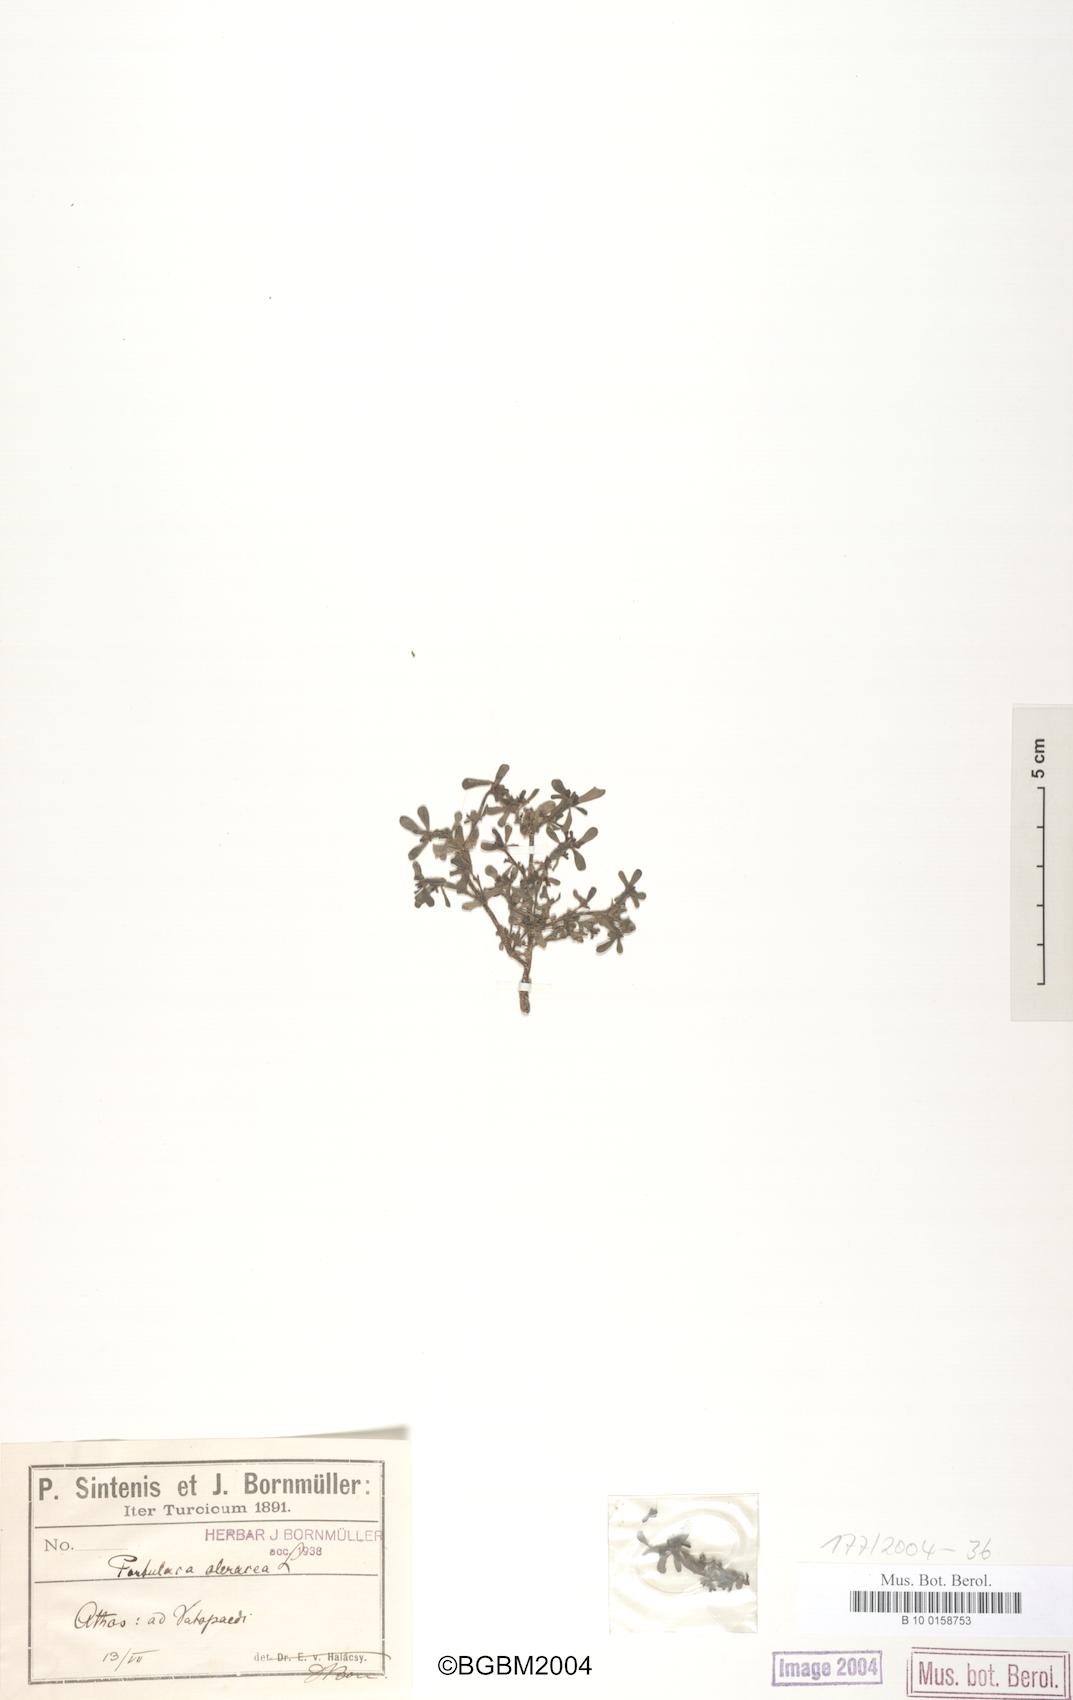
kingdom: Plantae
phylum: Tracheophyta
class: Magnoliopsida
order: Caryophyllales
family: Portulacaceae
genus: Portulaca
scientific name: Portulaca oleracea
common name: Common purslane
